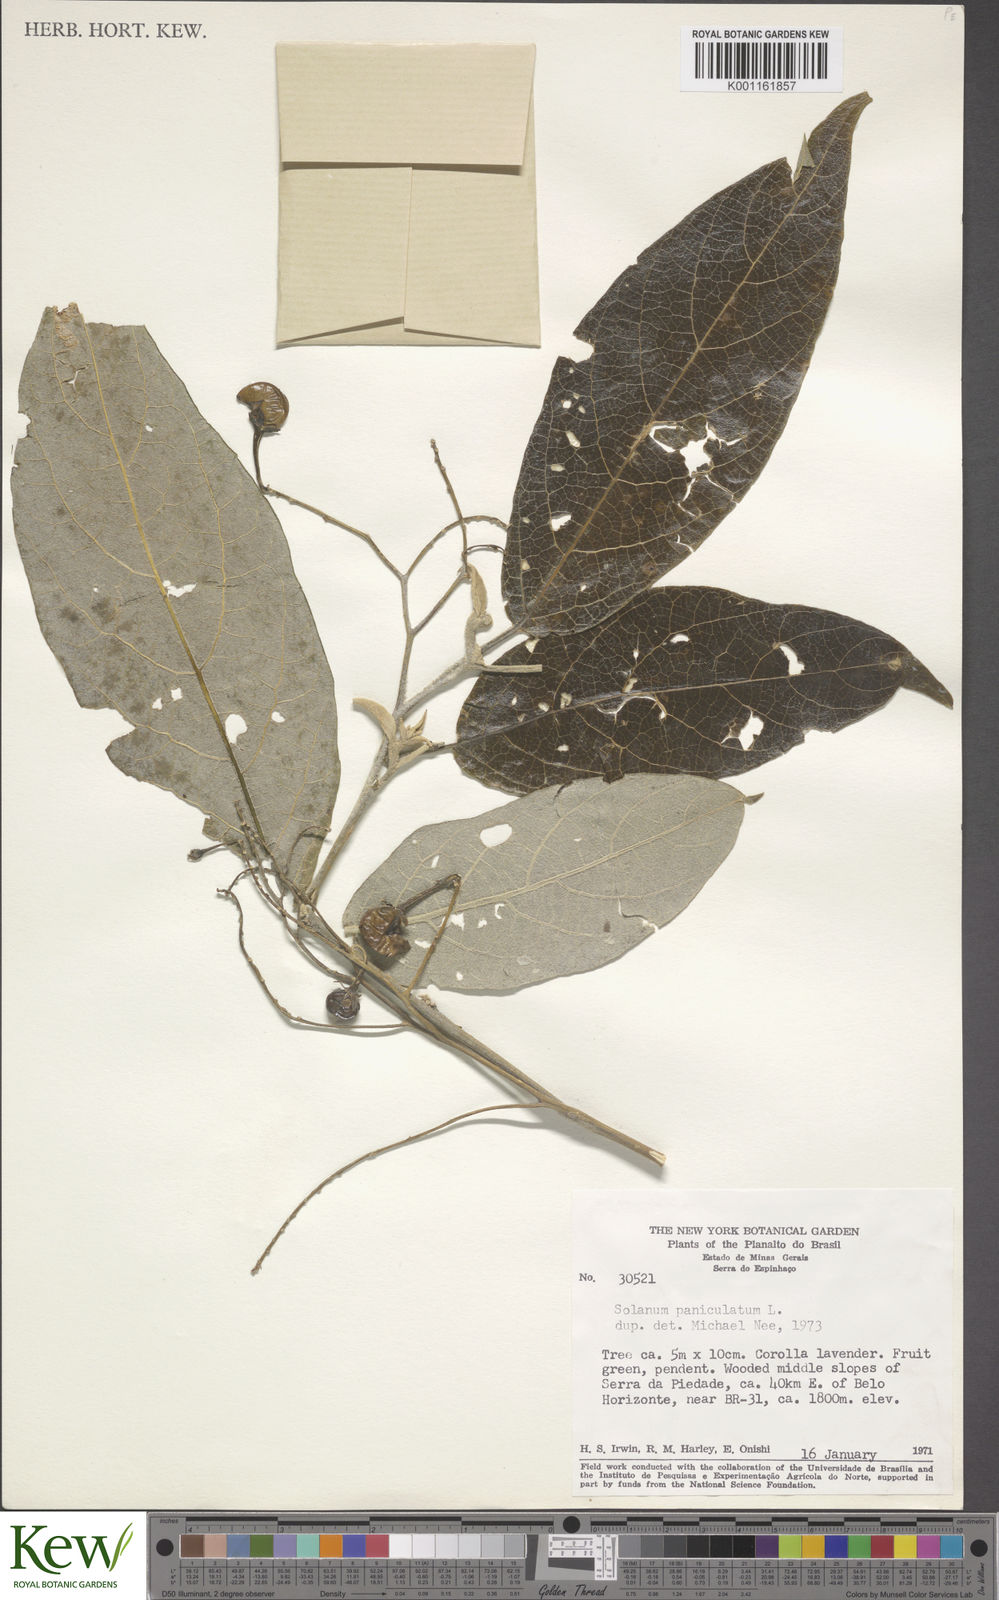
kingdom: Plantae
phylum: Tracheophyta
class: Magnoliopsida
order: Solanales
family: Solanaceae
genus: Solanum
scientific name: Solanum paniculatum
